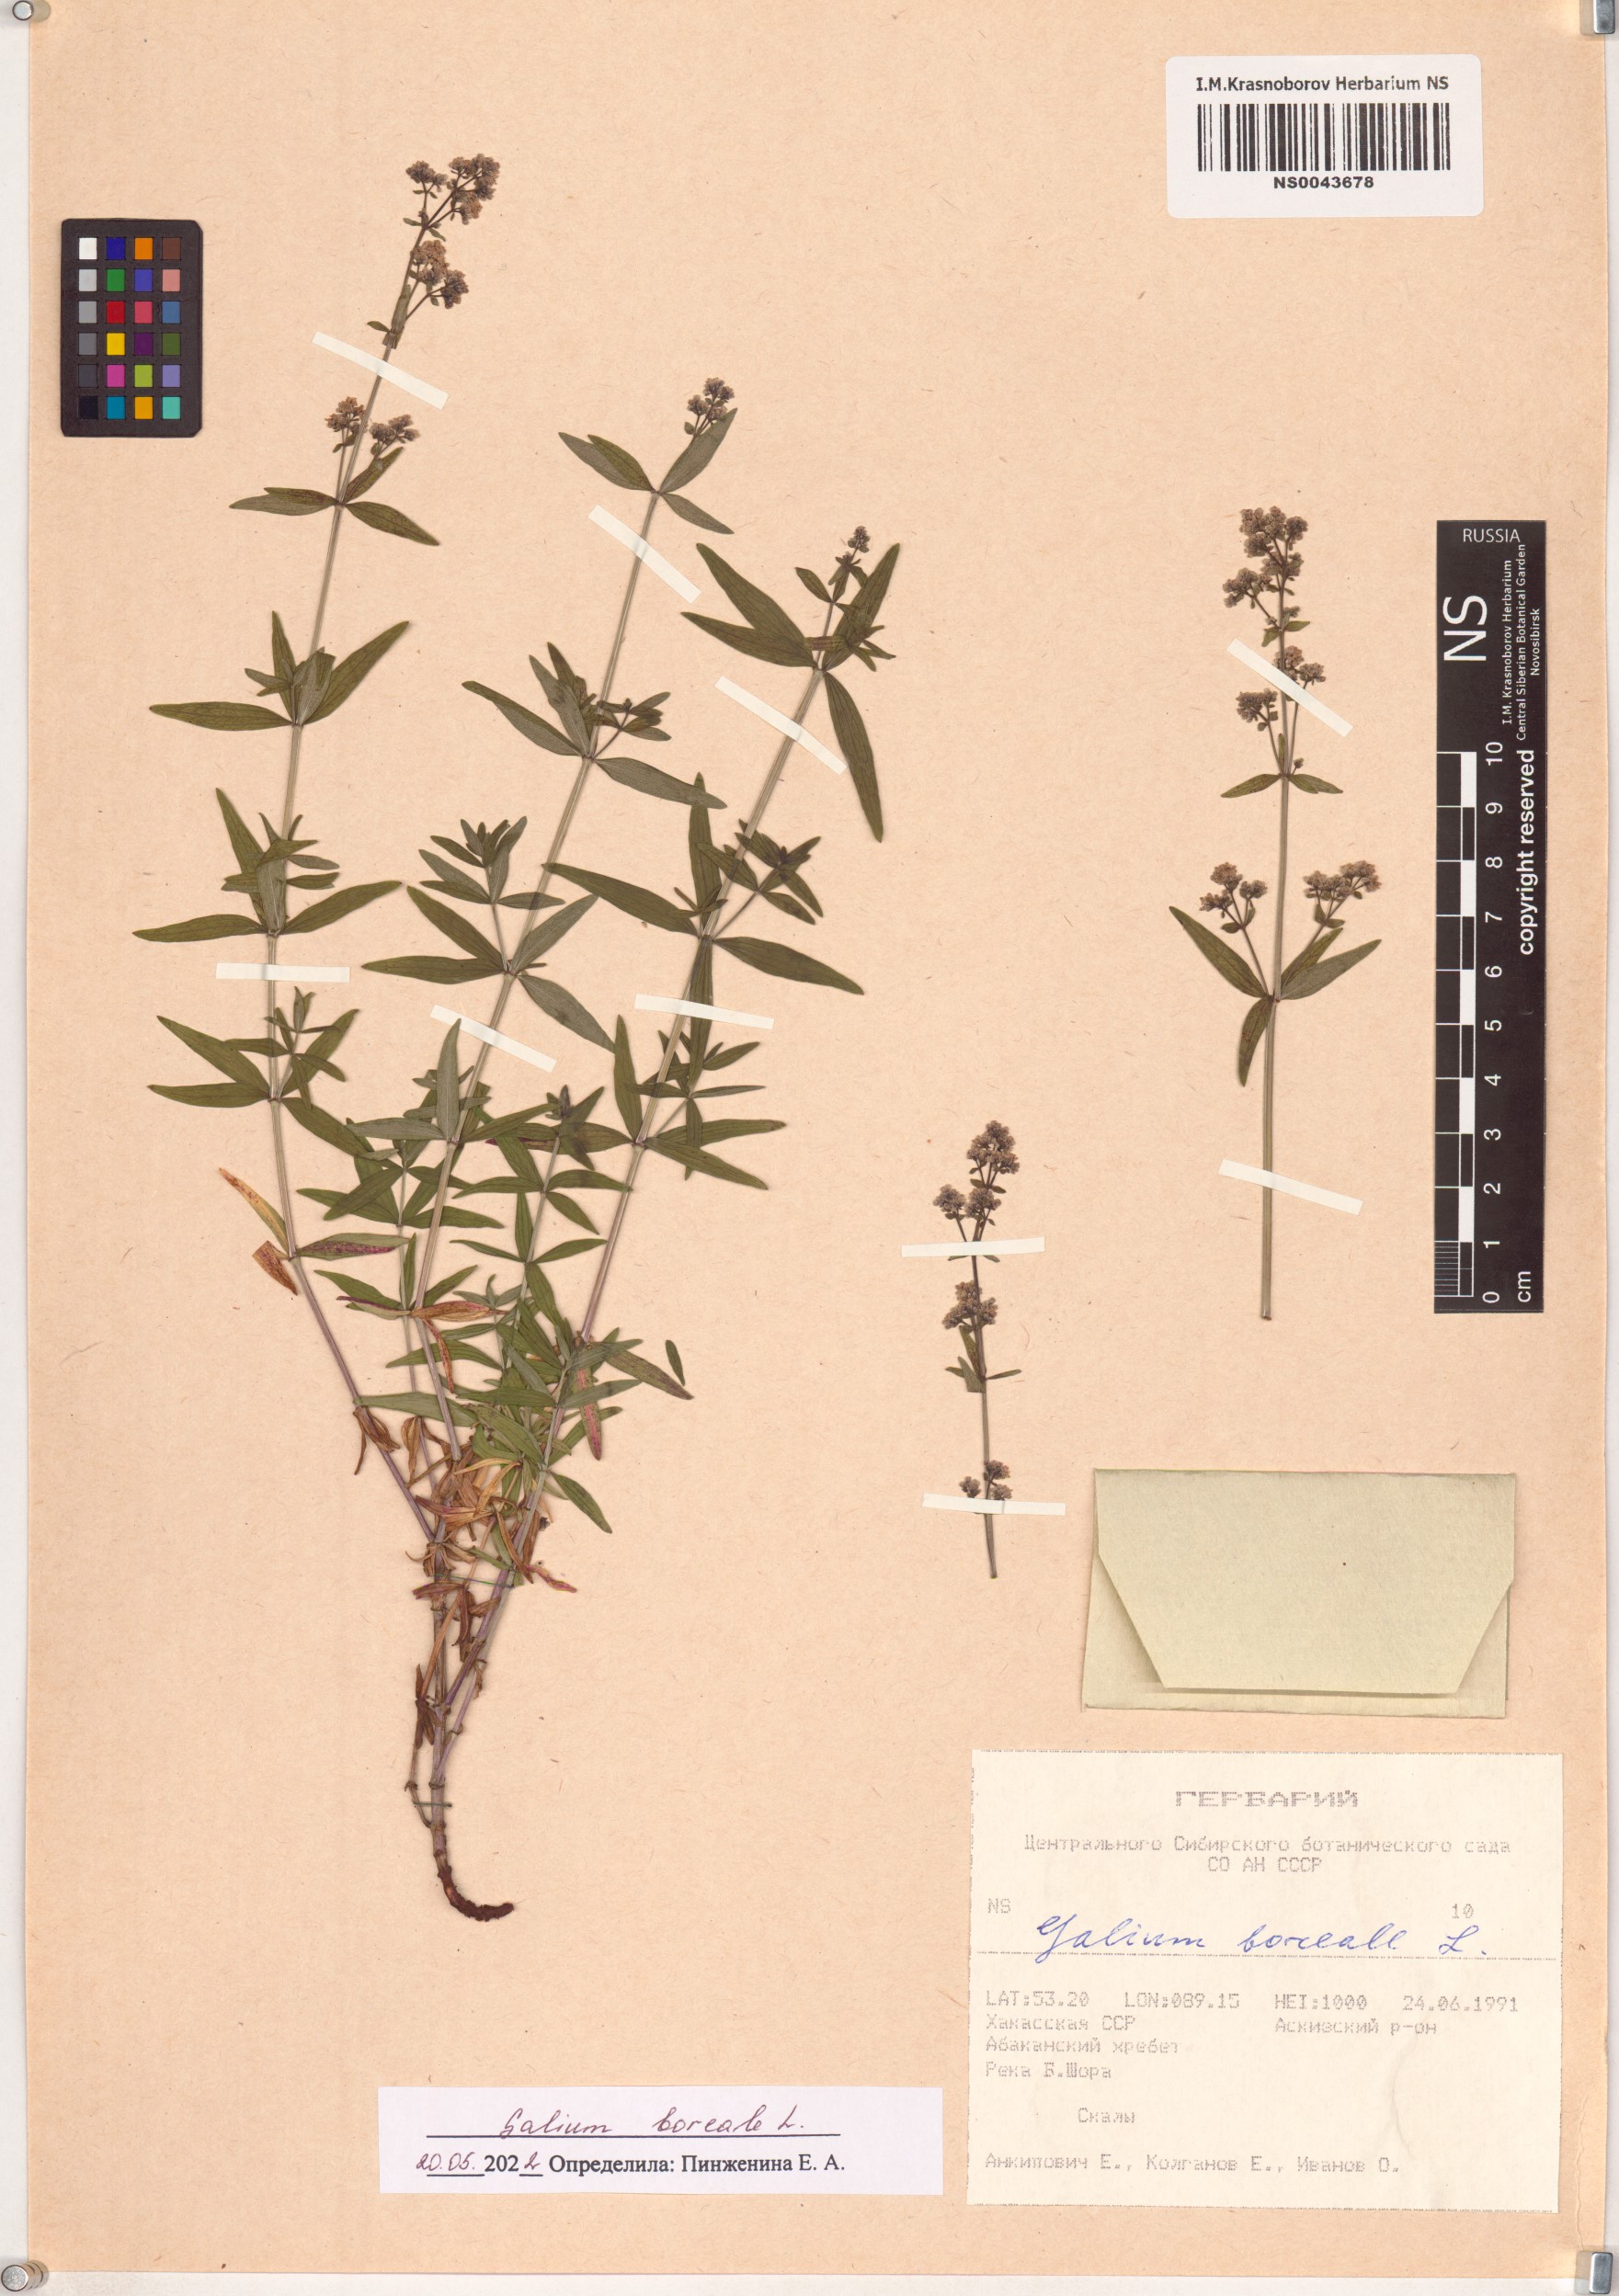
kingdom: Plantae
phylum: Tracheophyta
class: Magnoliopsida
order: Gentianales
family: Rubiaceae
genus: Galium
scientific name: Galium boreale
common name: Northern bedstraw
